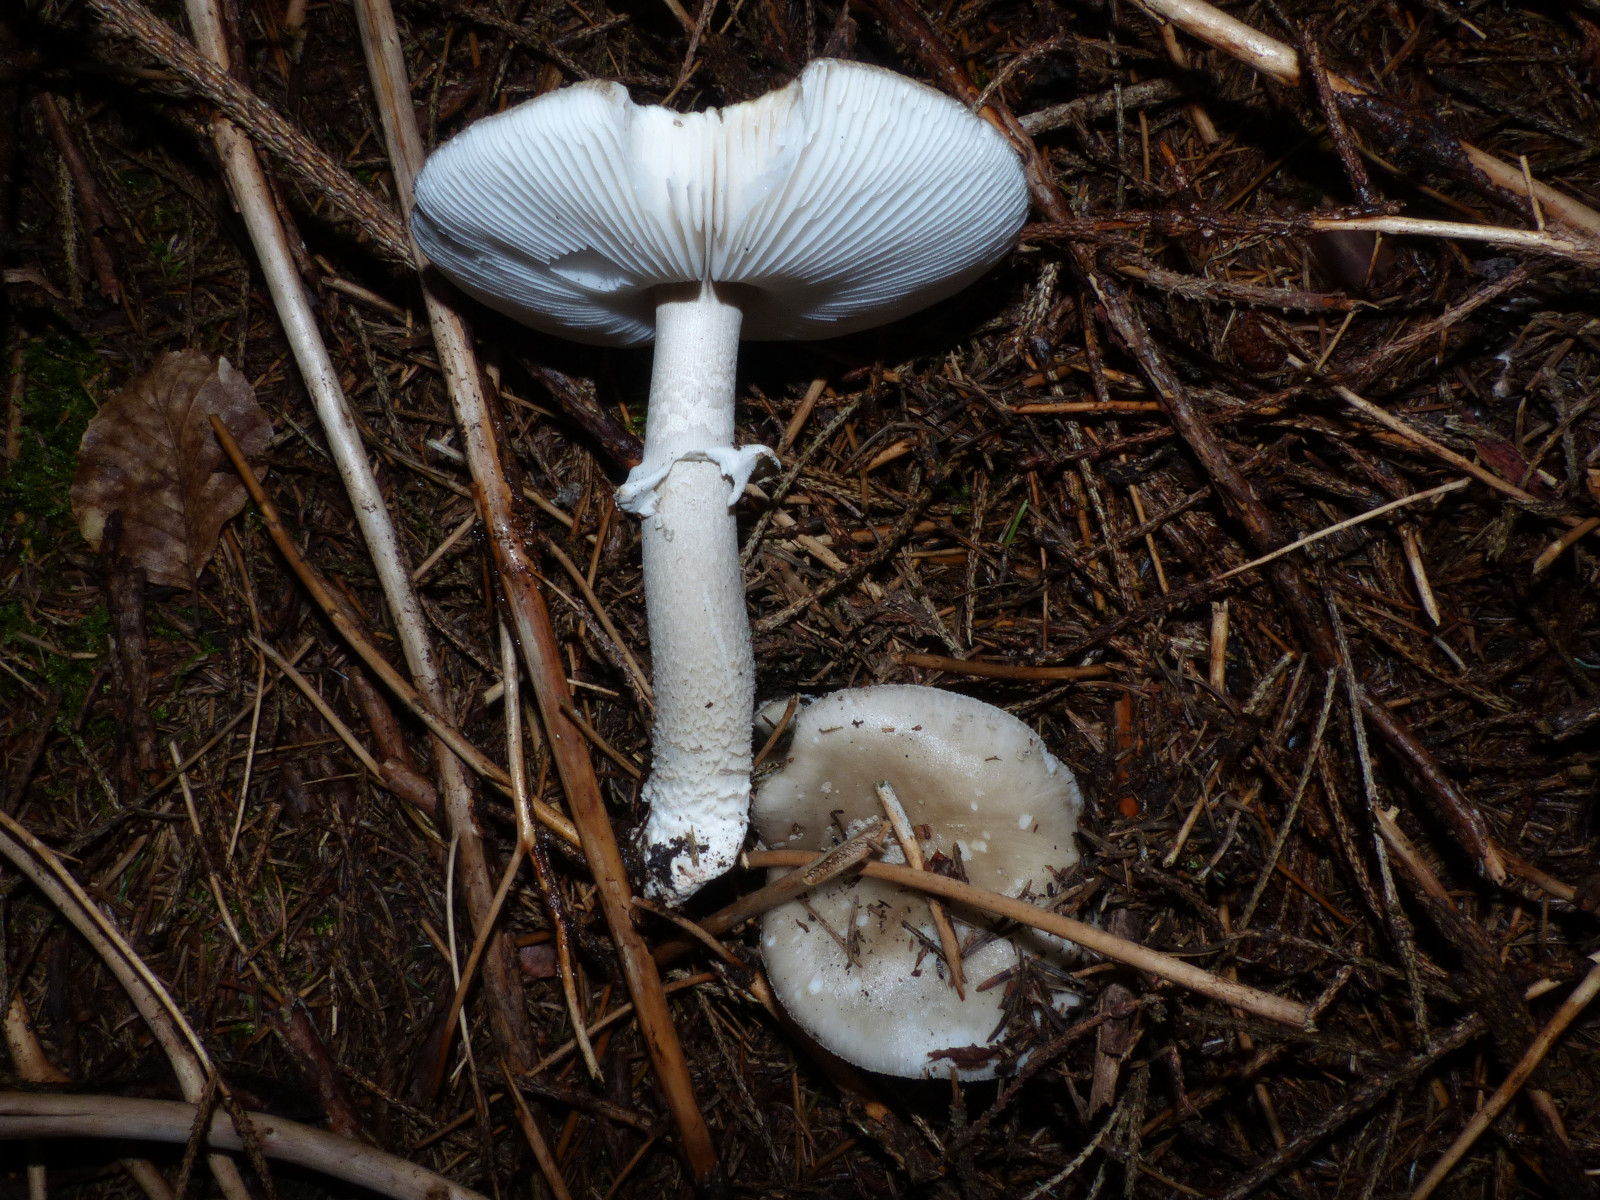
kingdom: Fungi
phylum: Basidiomycota
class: Agaricomycetes
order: Agaricales
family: Amanitaceae
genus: Amanita
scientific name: Amanita
